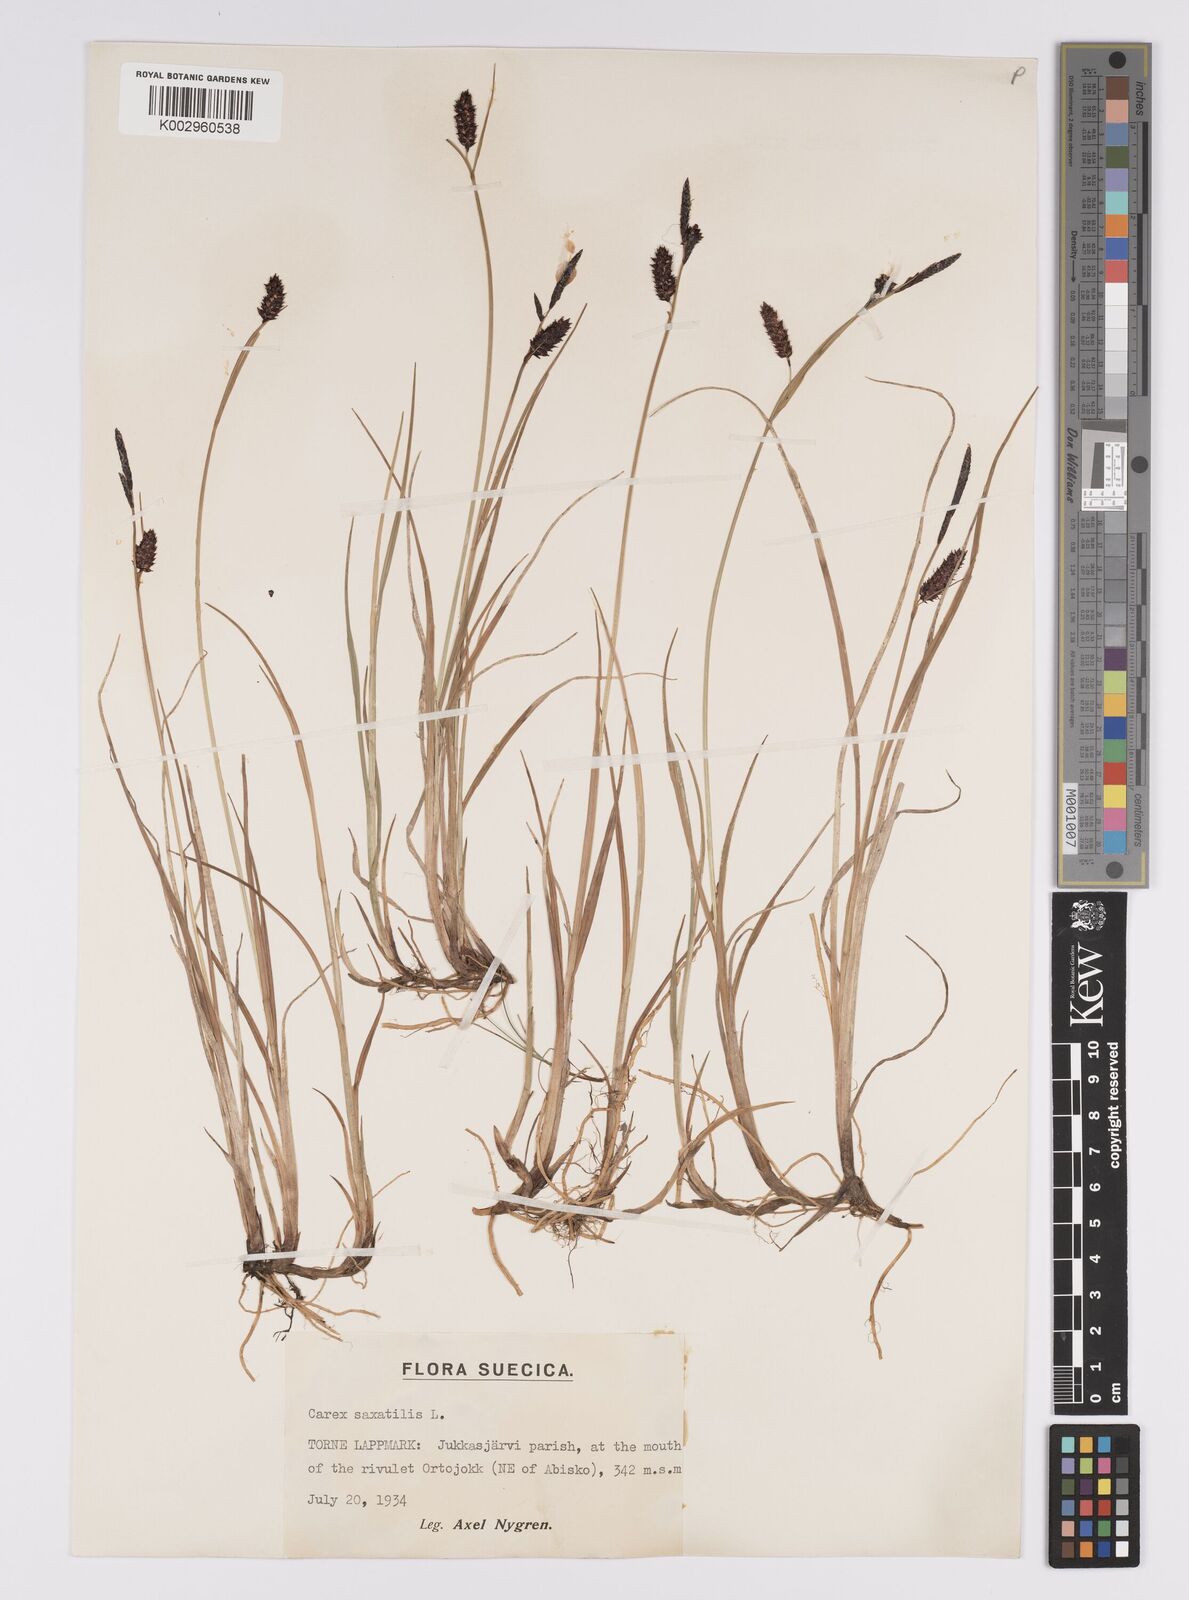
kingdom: Plantae
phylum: Tracheophyta
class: Liliopsida
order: Poales
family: Cyperaceae
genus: Carex
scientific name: Carex saxatilis
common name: Russet sedge
